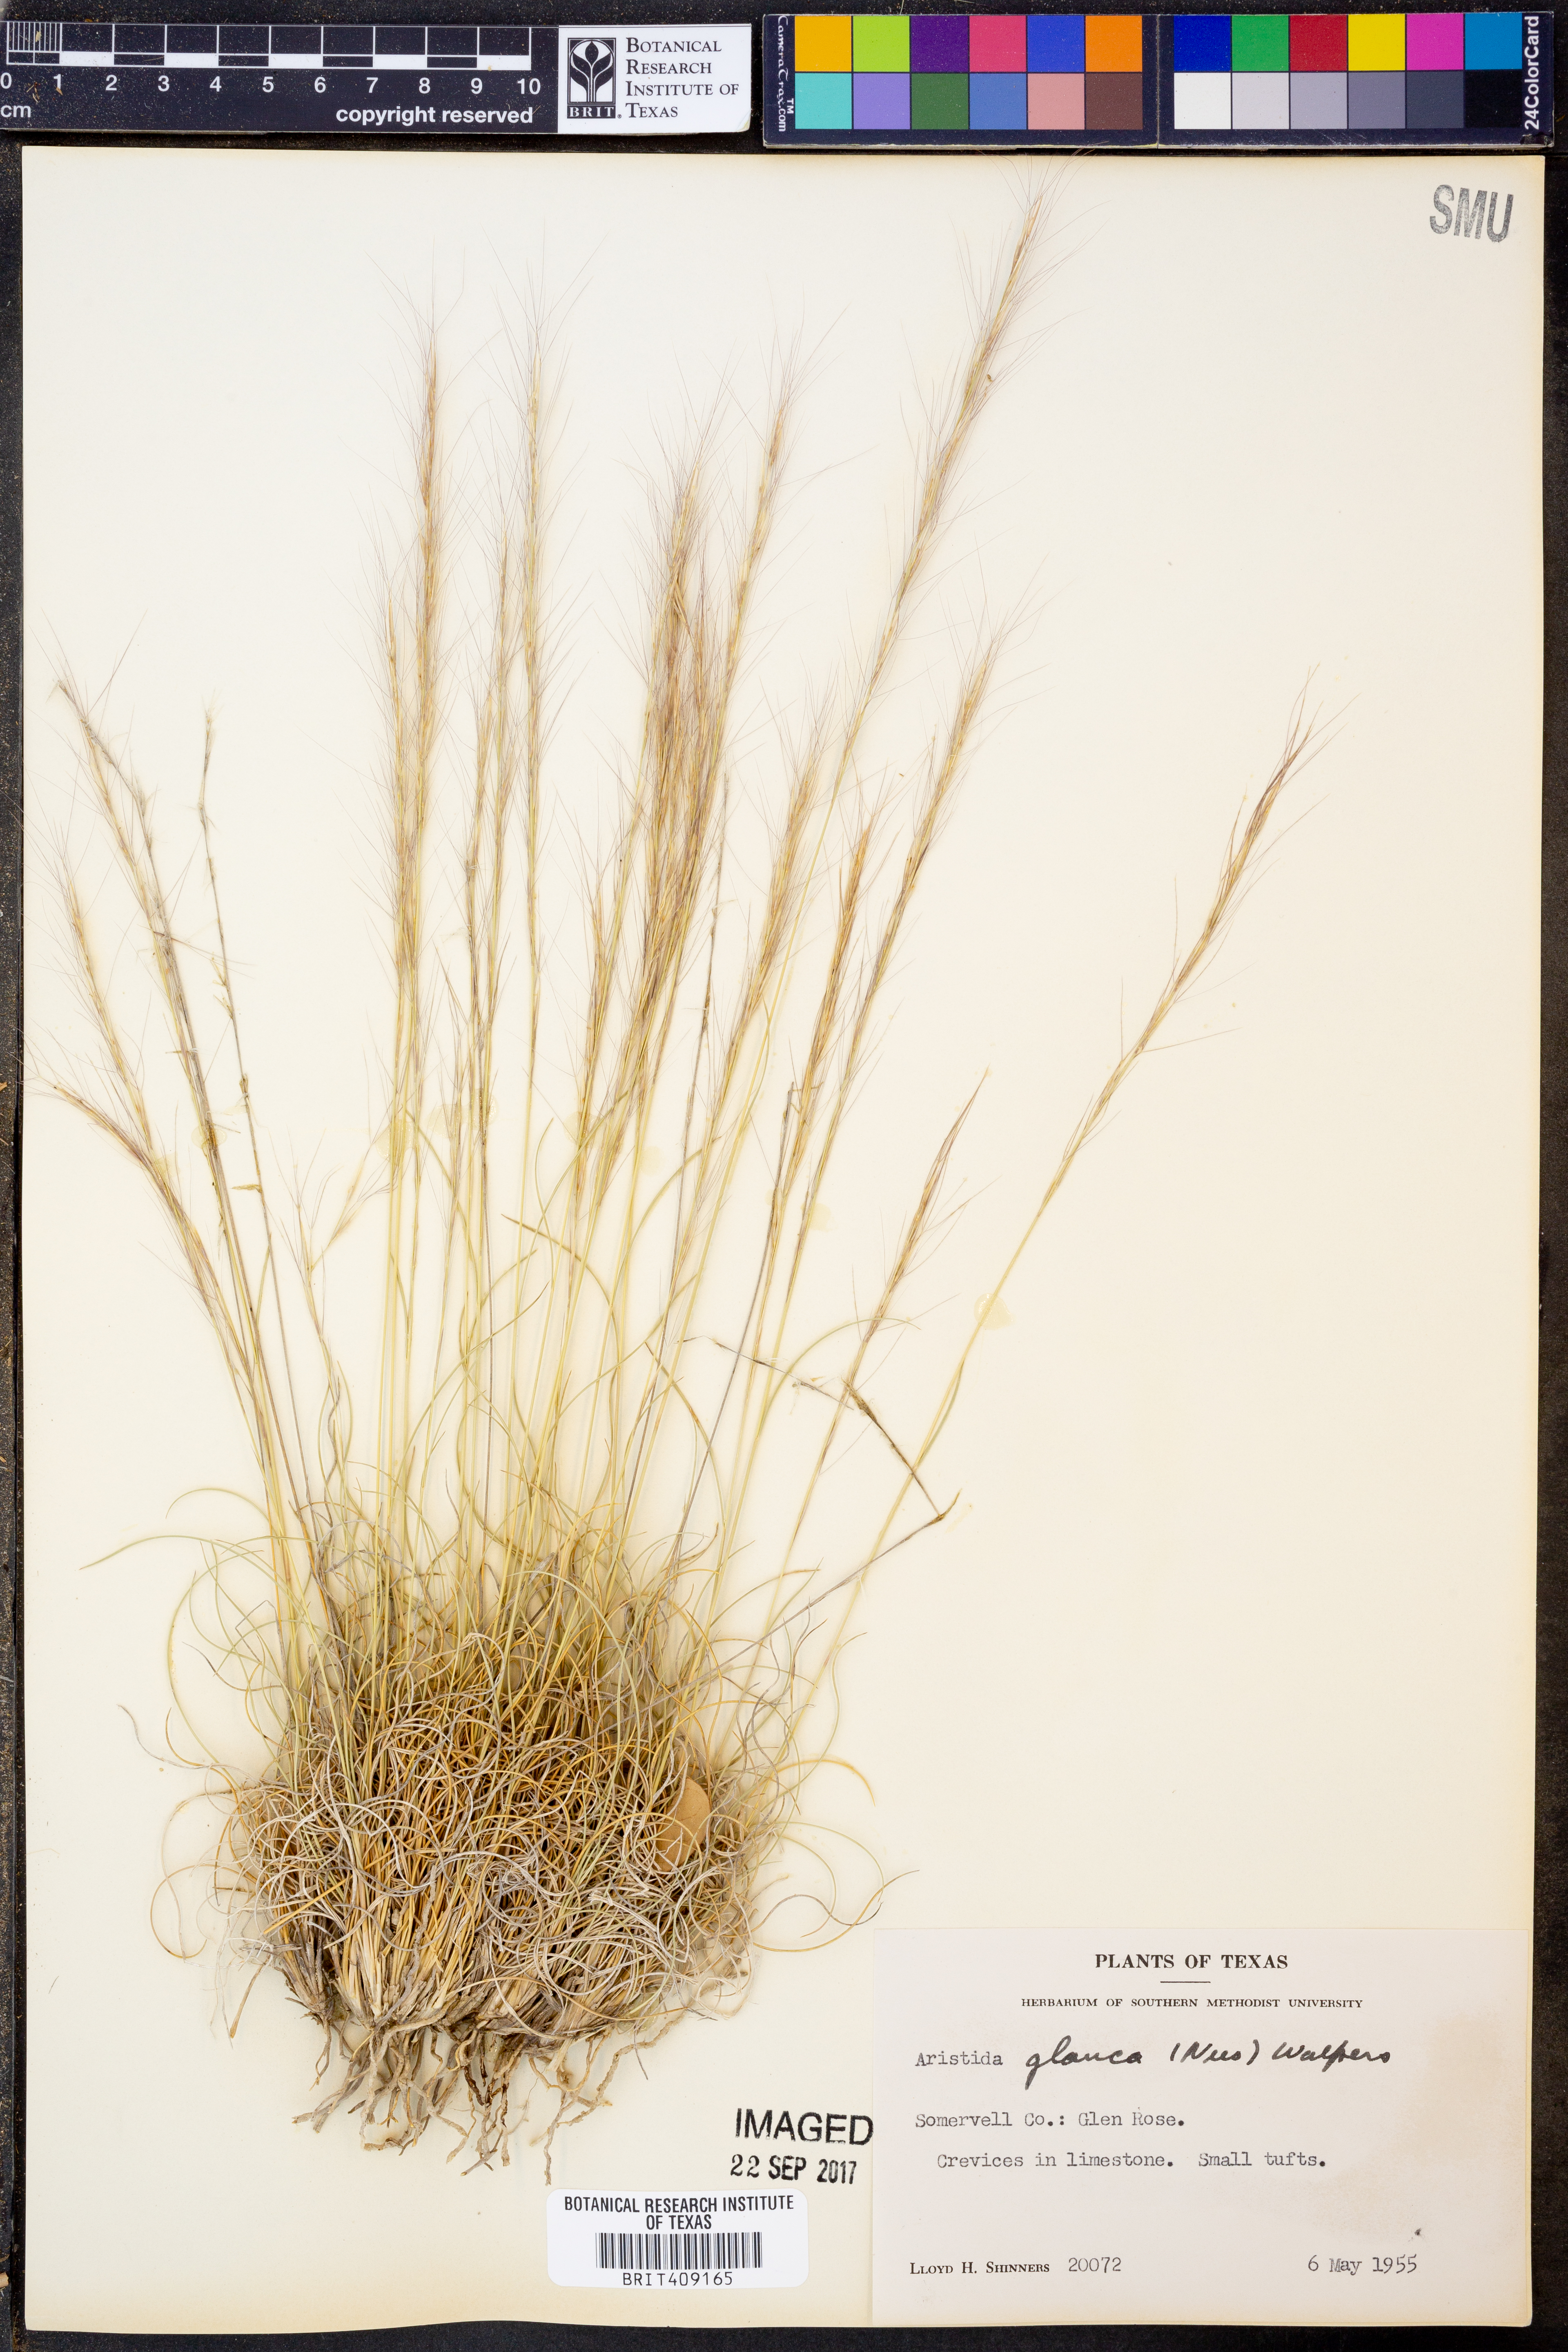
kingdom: Plantae
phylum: Tracheophyta
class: Liliopsida
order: Poales
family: Poaceae
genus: Aristida
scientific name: Aristida glauca
